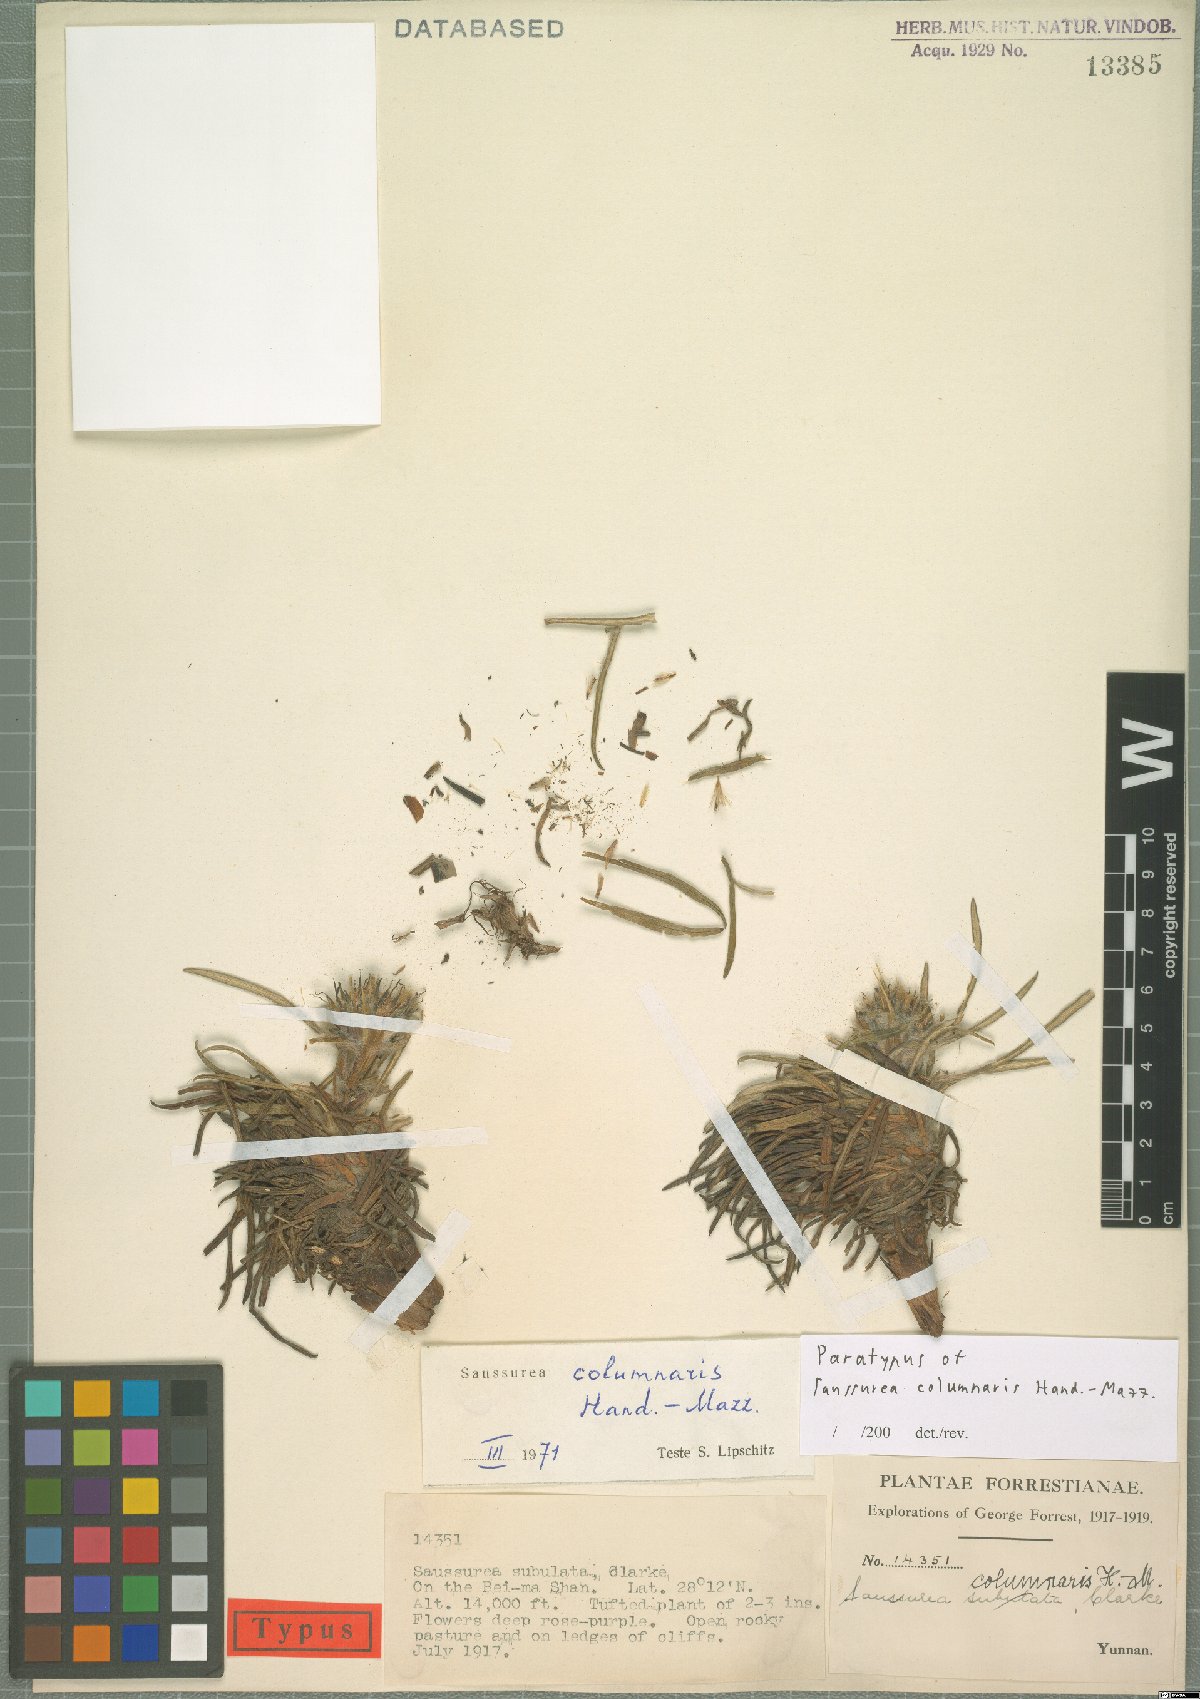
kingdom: Plantae
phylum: Tracheophyta
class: Magnoliopsida
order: Asterales
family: Asteraceae
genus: Saussurea
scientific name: Saussurea columnaris
